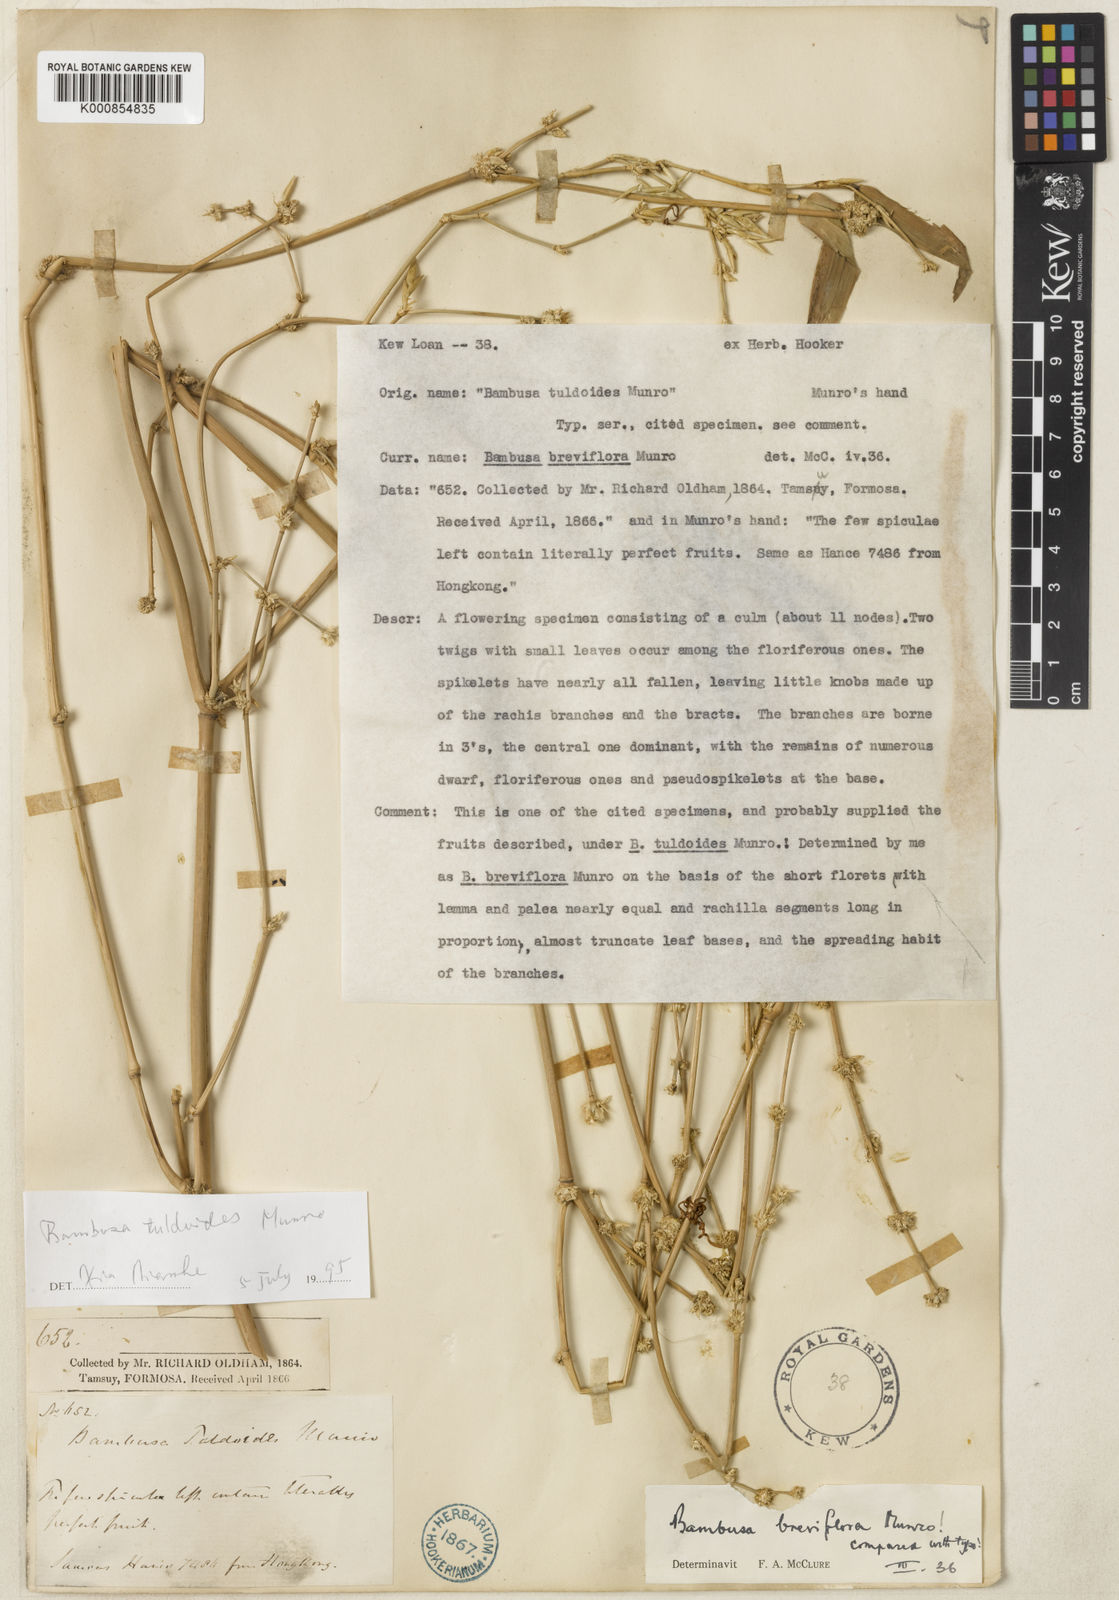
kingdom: Plantae
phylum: Tracheophyta
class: Liliopsida
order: Poales
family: Poaceae
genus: Bambusa
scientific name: Bambusa tuldoides
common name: Verdant bamboo
